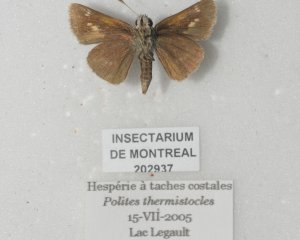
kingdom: Animalia
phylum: Arthropoda
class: Insecta
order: Lepidoptera
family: Hesperiidae
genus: Polites
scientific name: Polites themistocles
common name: Tawny-edged Skipper
